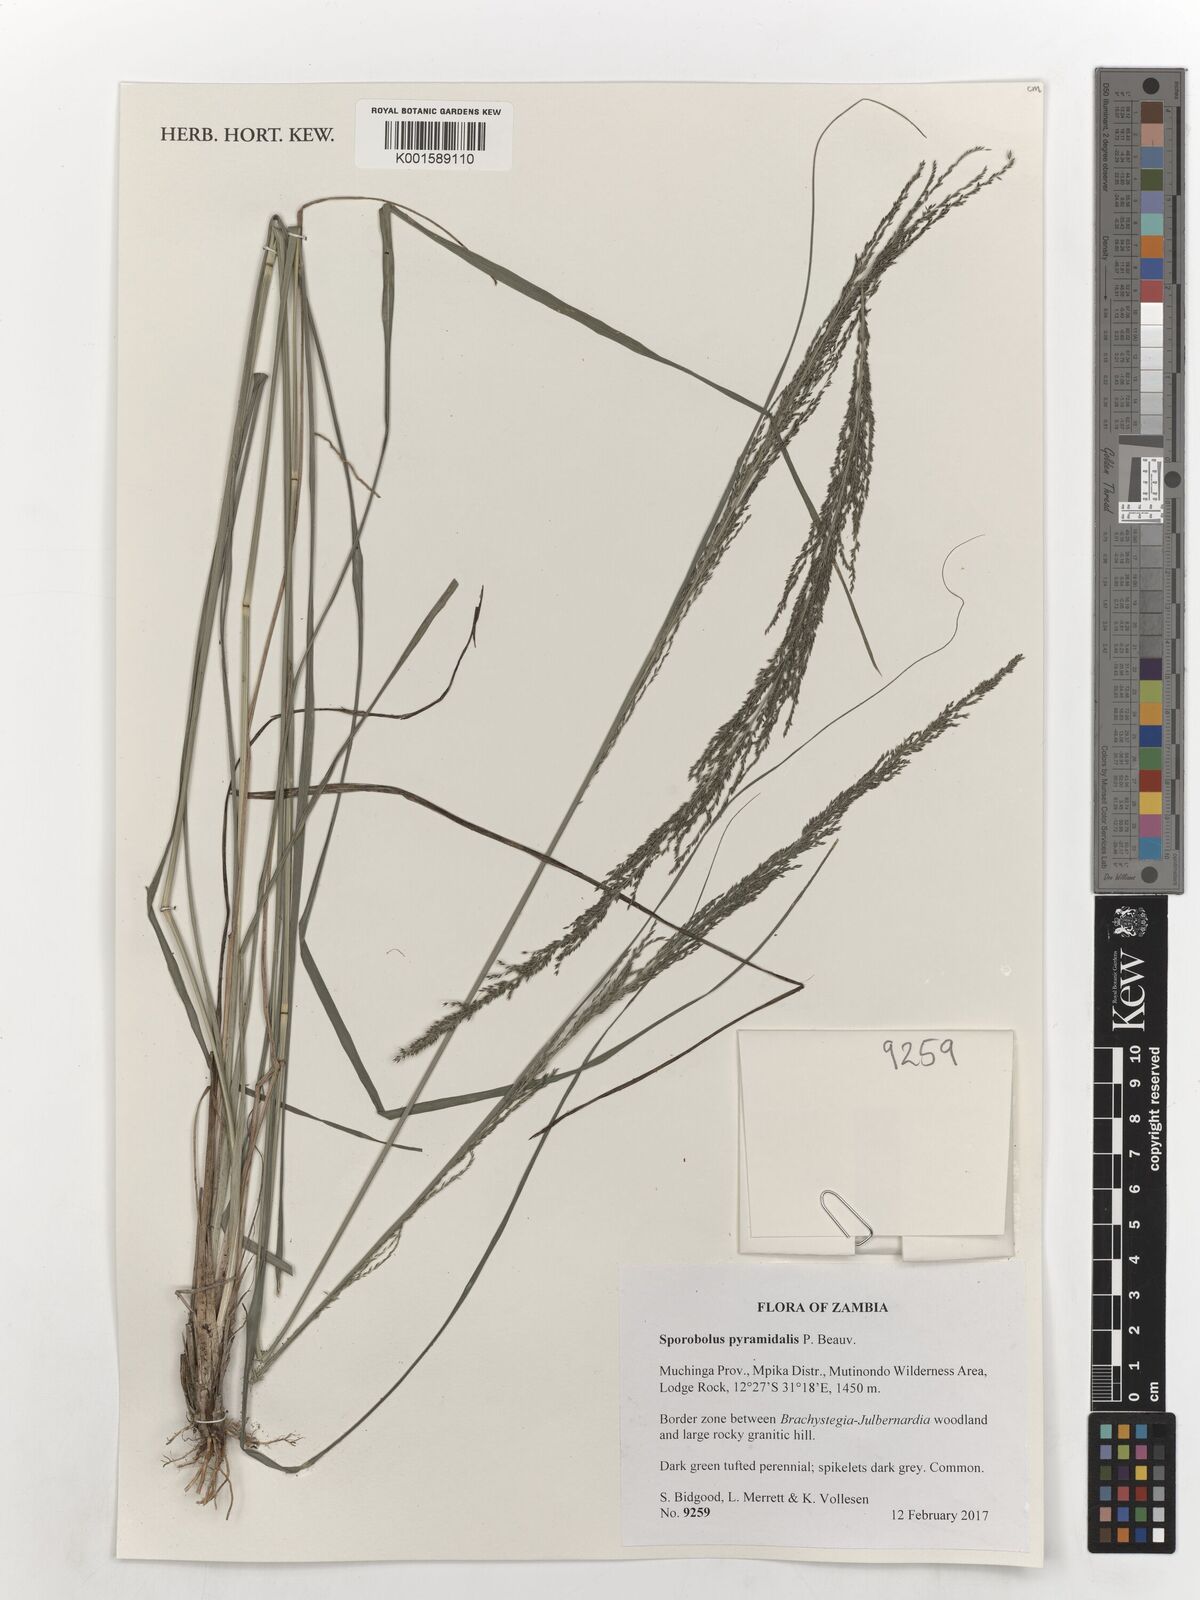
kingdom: Plantae
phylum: Tracheophyta
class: Liliopsida
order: Poales
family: Poaceae
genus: Sporobolus
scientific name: Sporobolus pyramidalis
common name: West indian dropseed
